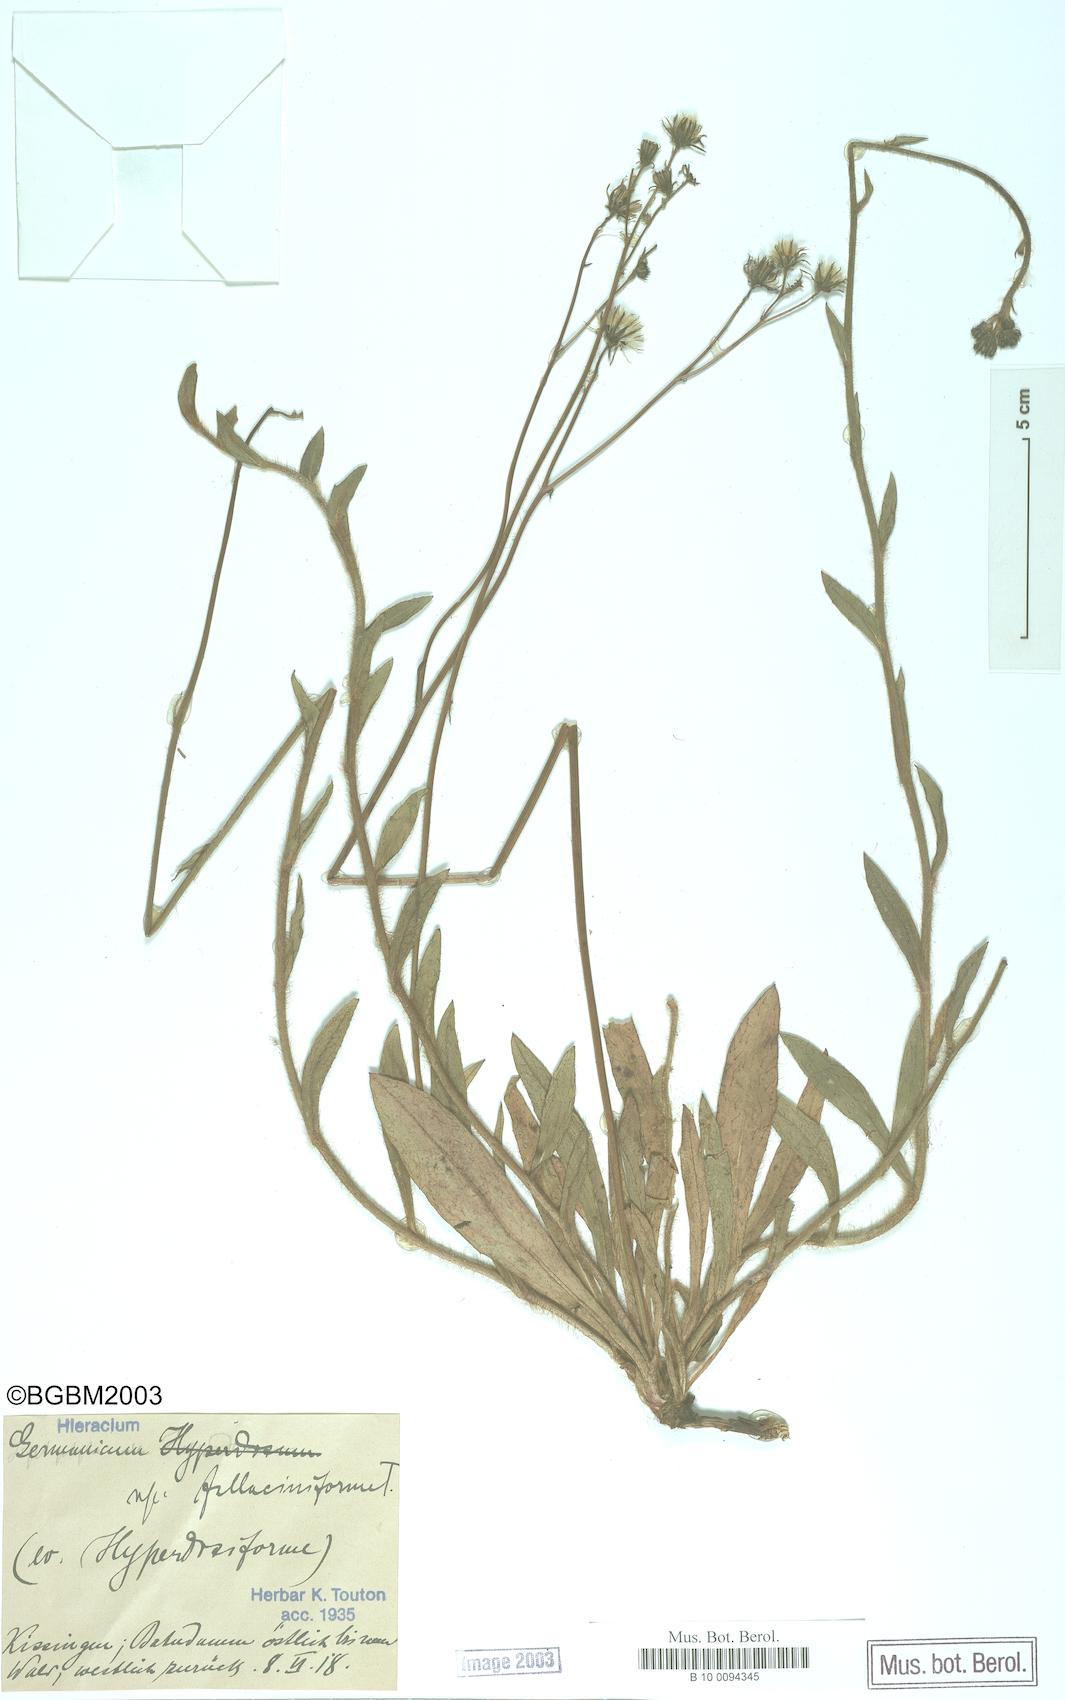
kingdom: Plantae
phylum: Tracheophyta
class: Magnoliopsida
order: Asterales
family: Asteraceae
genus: Pilosella
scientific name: Pilosella fallacina
